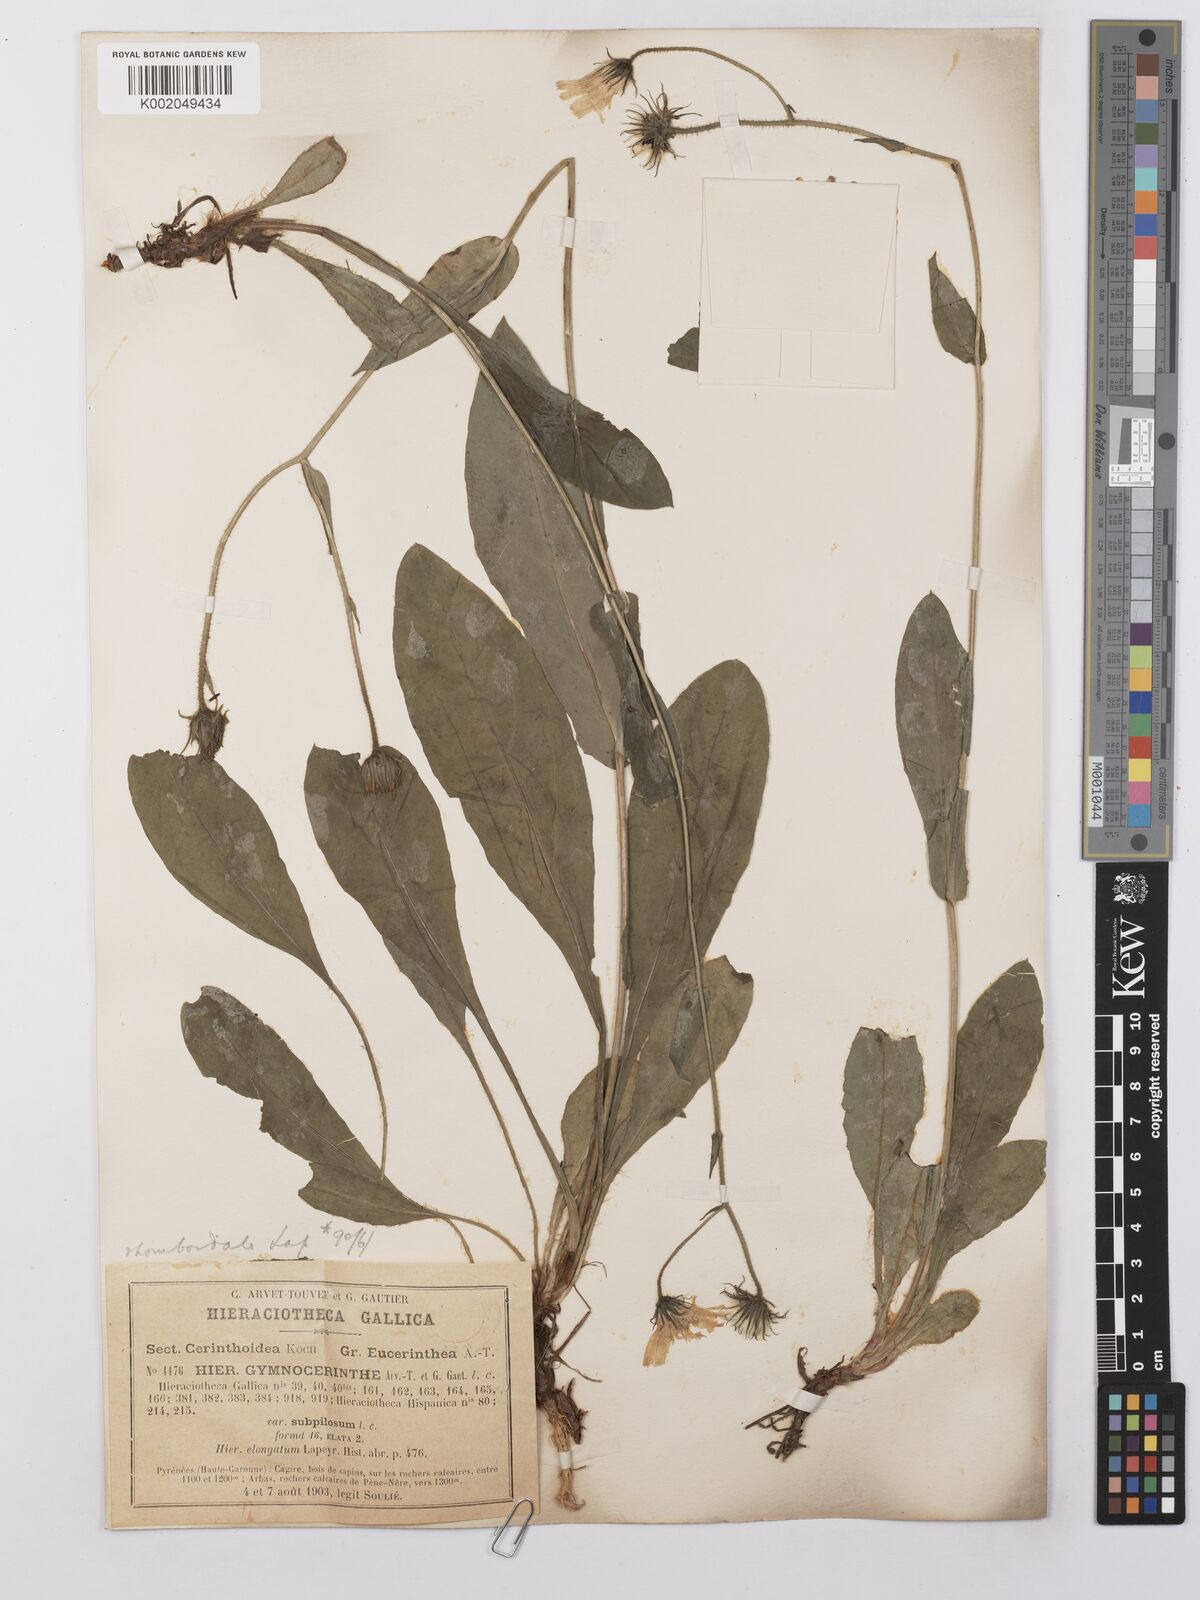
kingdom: Plantae
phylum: Tracheophyta
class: Magnoliopsida
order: Asterales
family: Asteraceae
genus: Hieracium
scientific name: Hieracium cerinthoides
